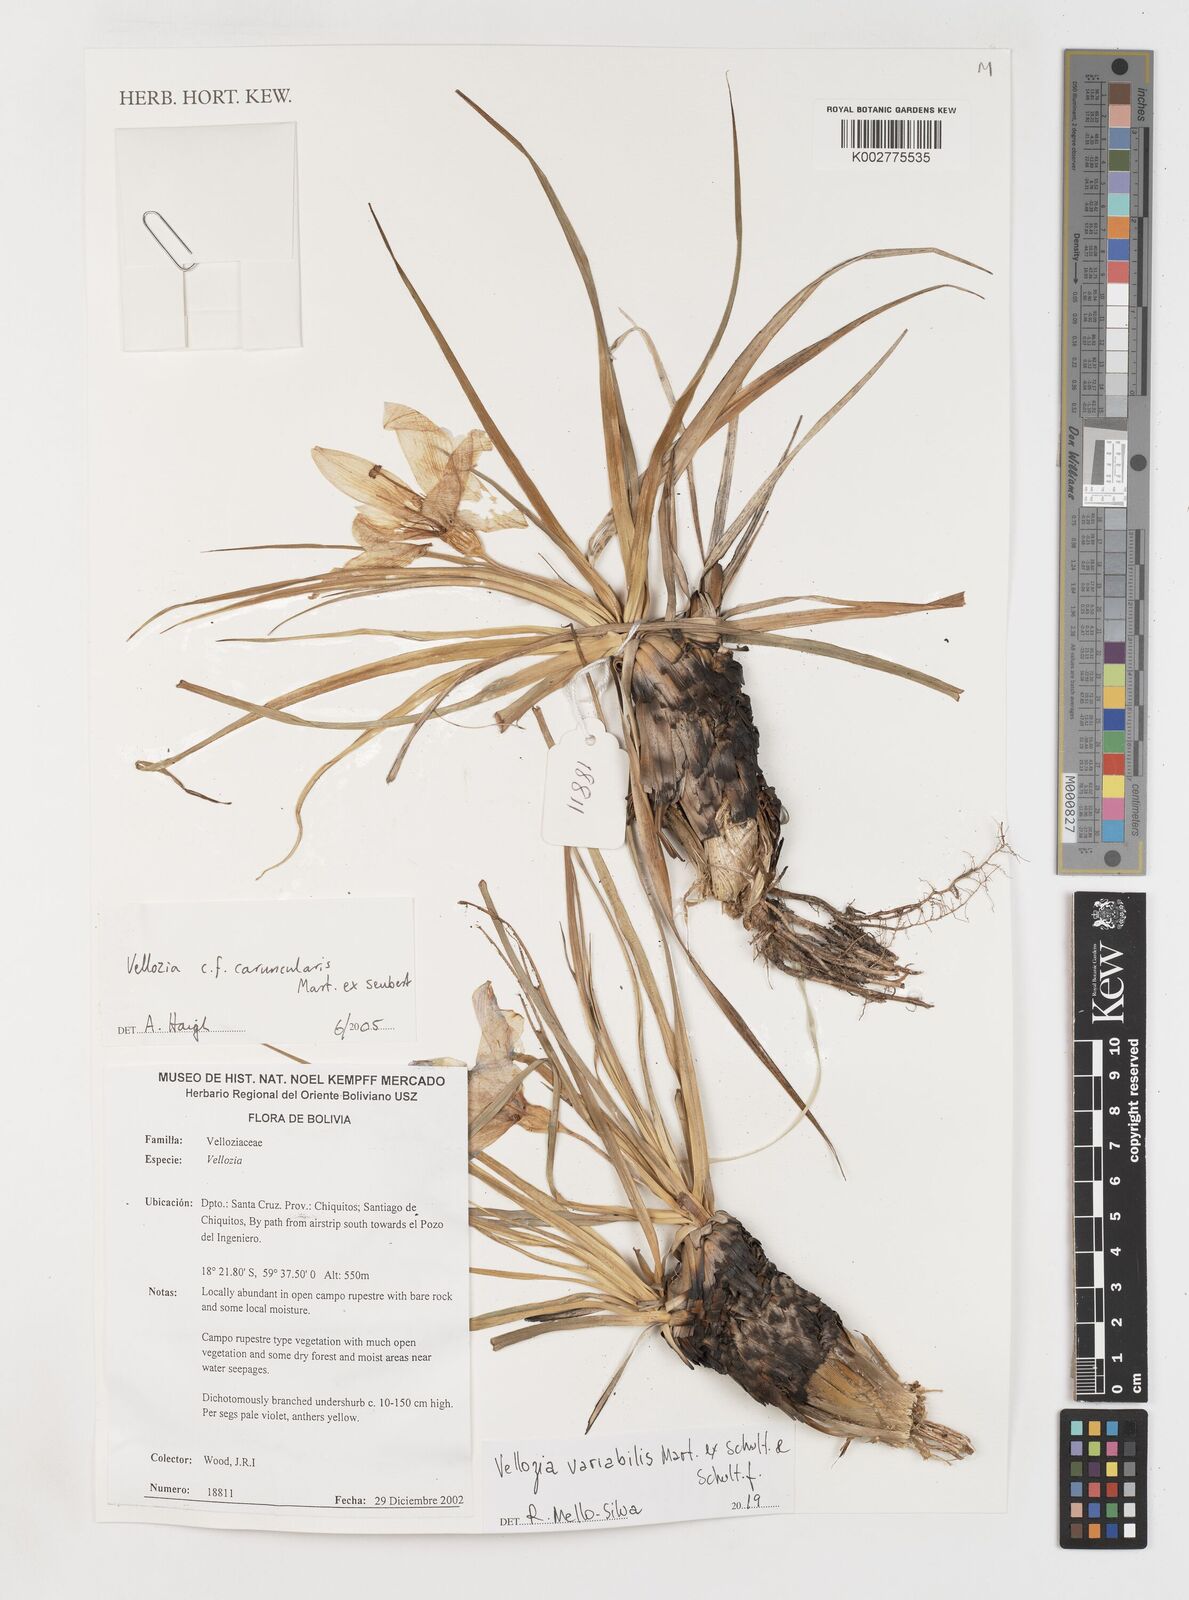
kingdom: Plantae
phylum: Tracheophyta
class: Liliopsida
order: Pandanales
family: Velloziaceae
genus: Vellozia
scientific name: Vellozia alutacea
